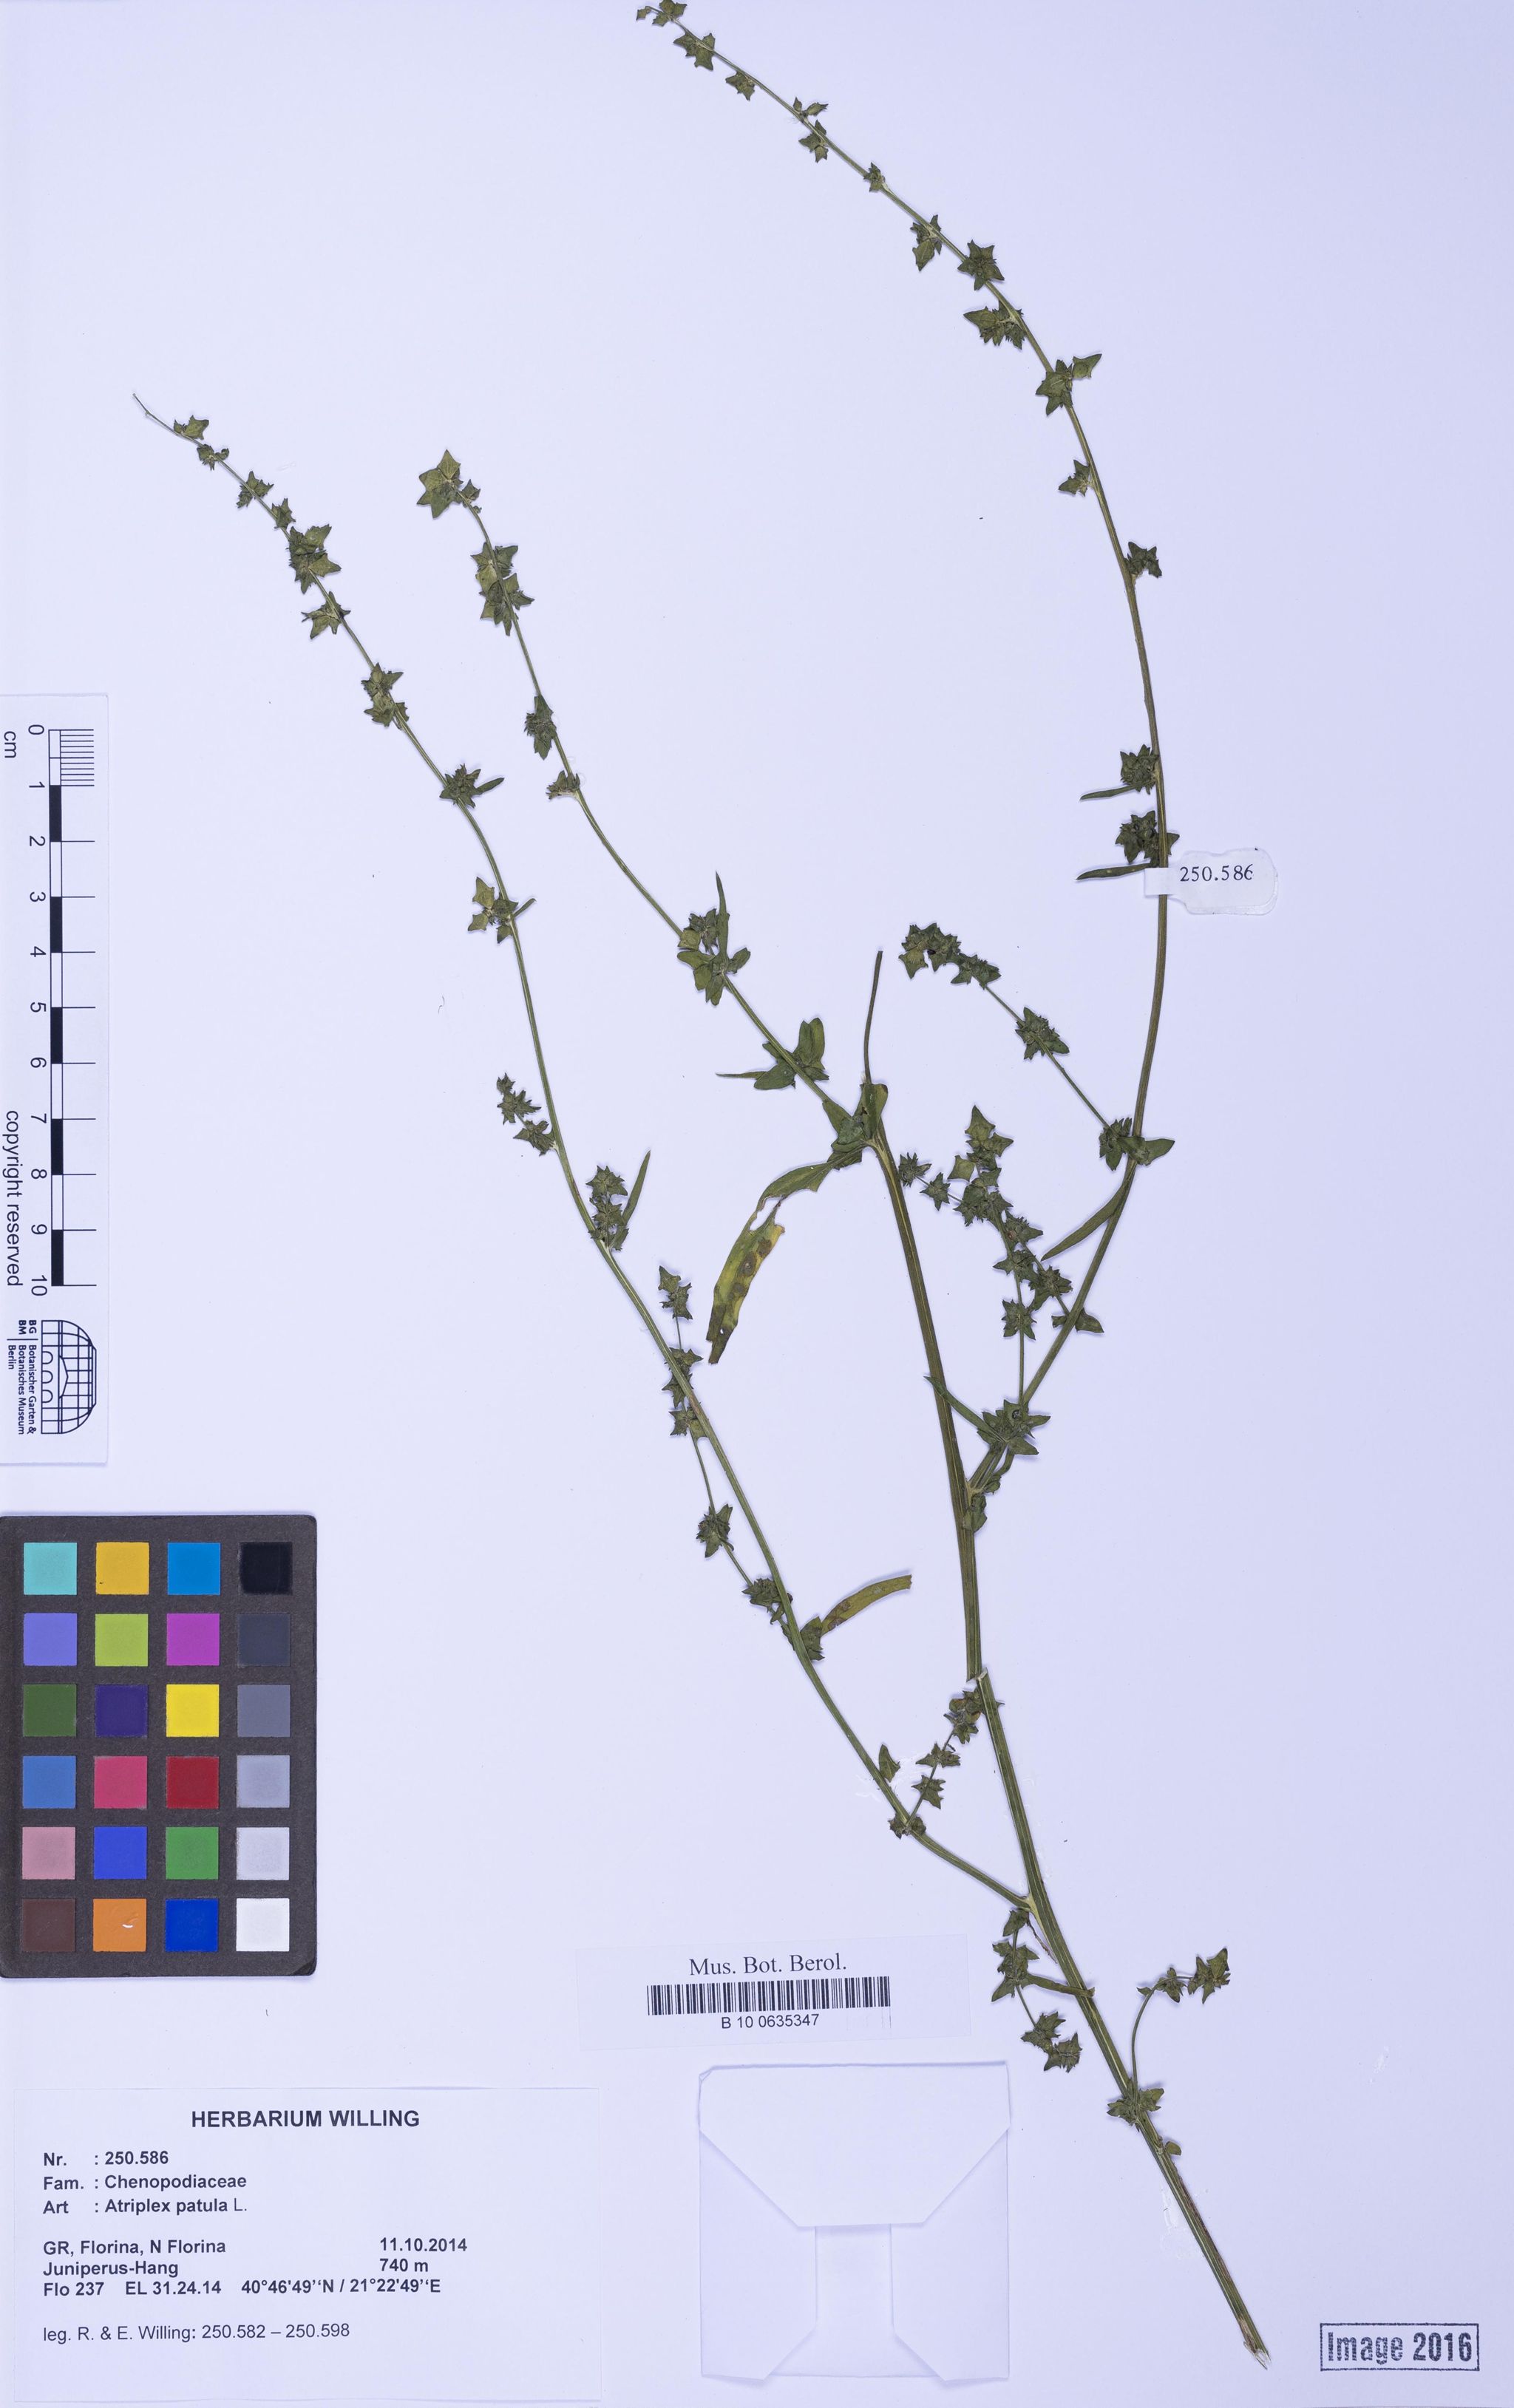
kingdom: Plantae
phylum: Tracheophyta
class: Magnoliopsida
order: Caryophyllales
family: Amaranthaceae
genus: Atriplex
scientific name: Atriplex patula
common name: Common orache
